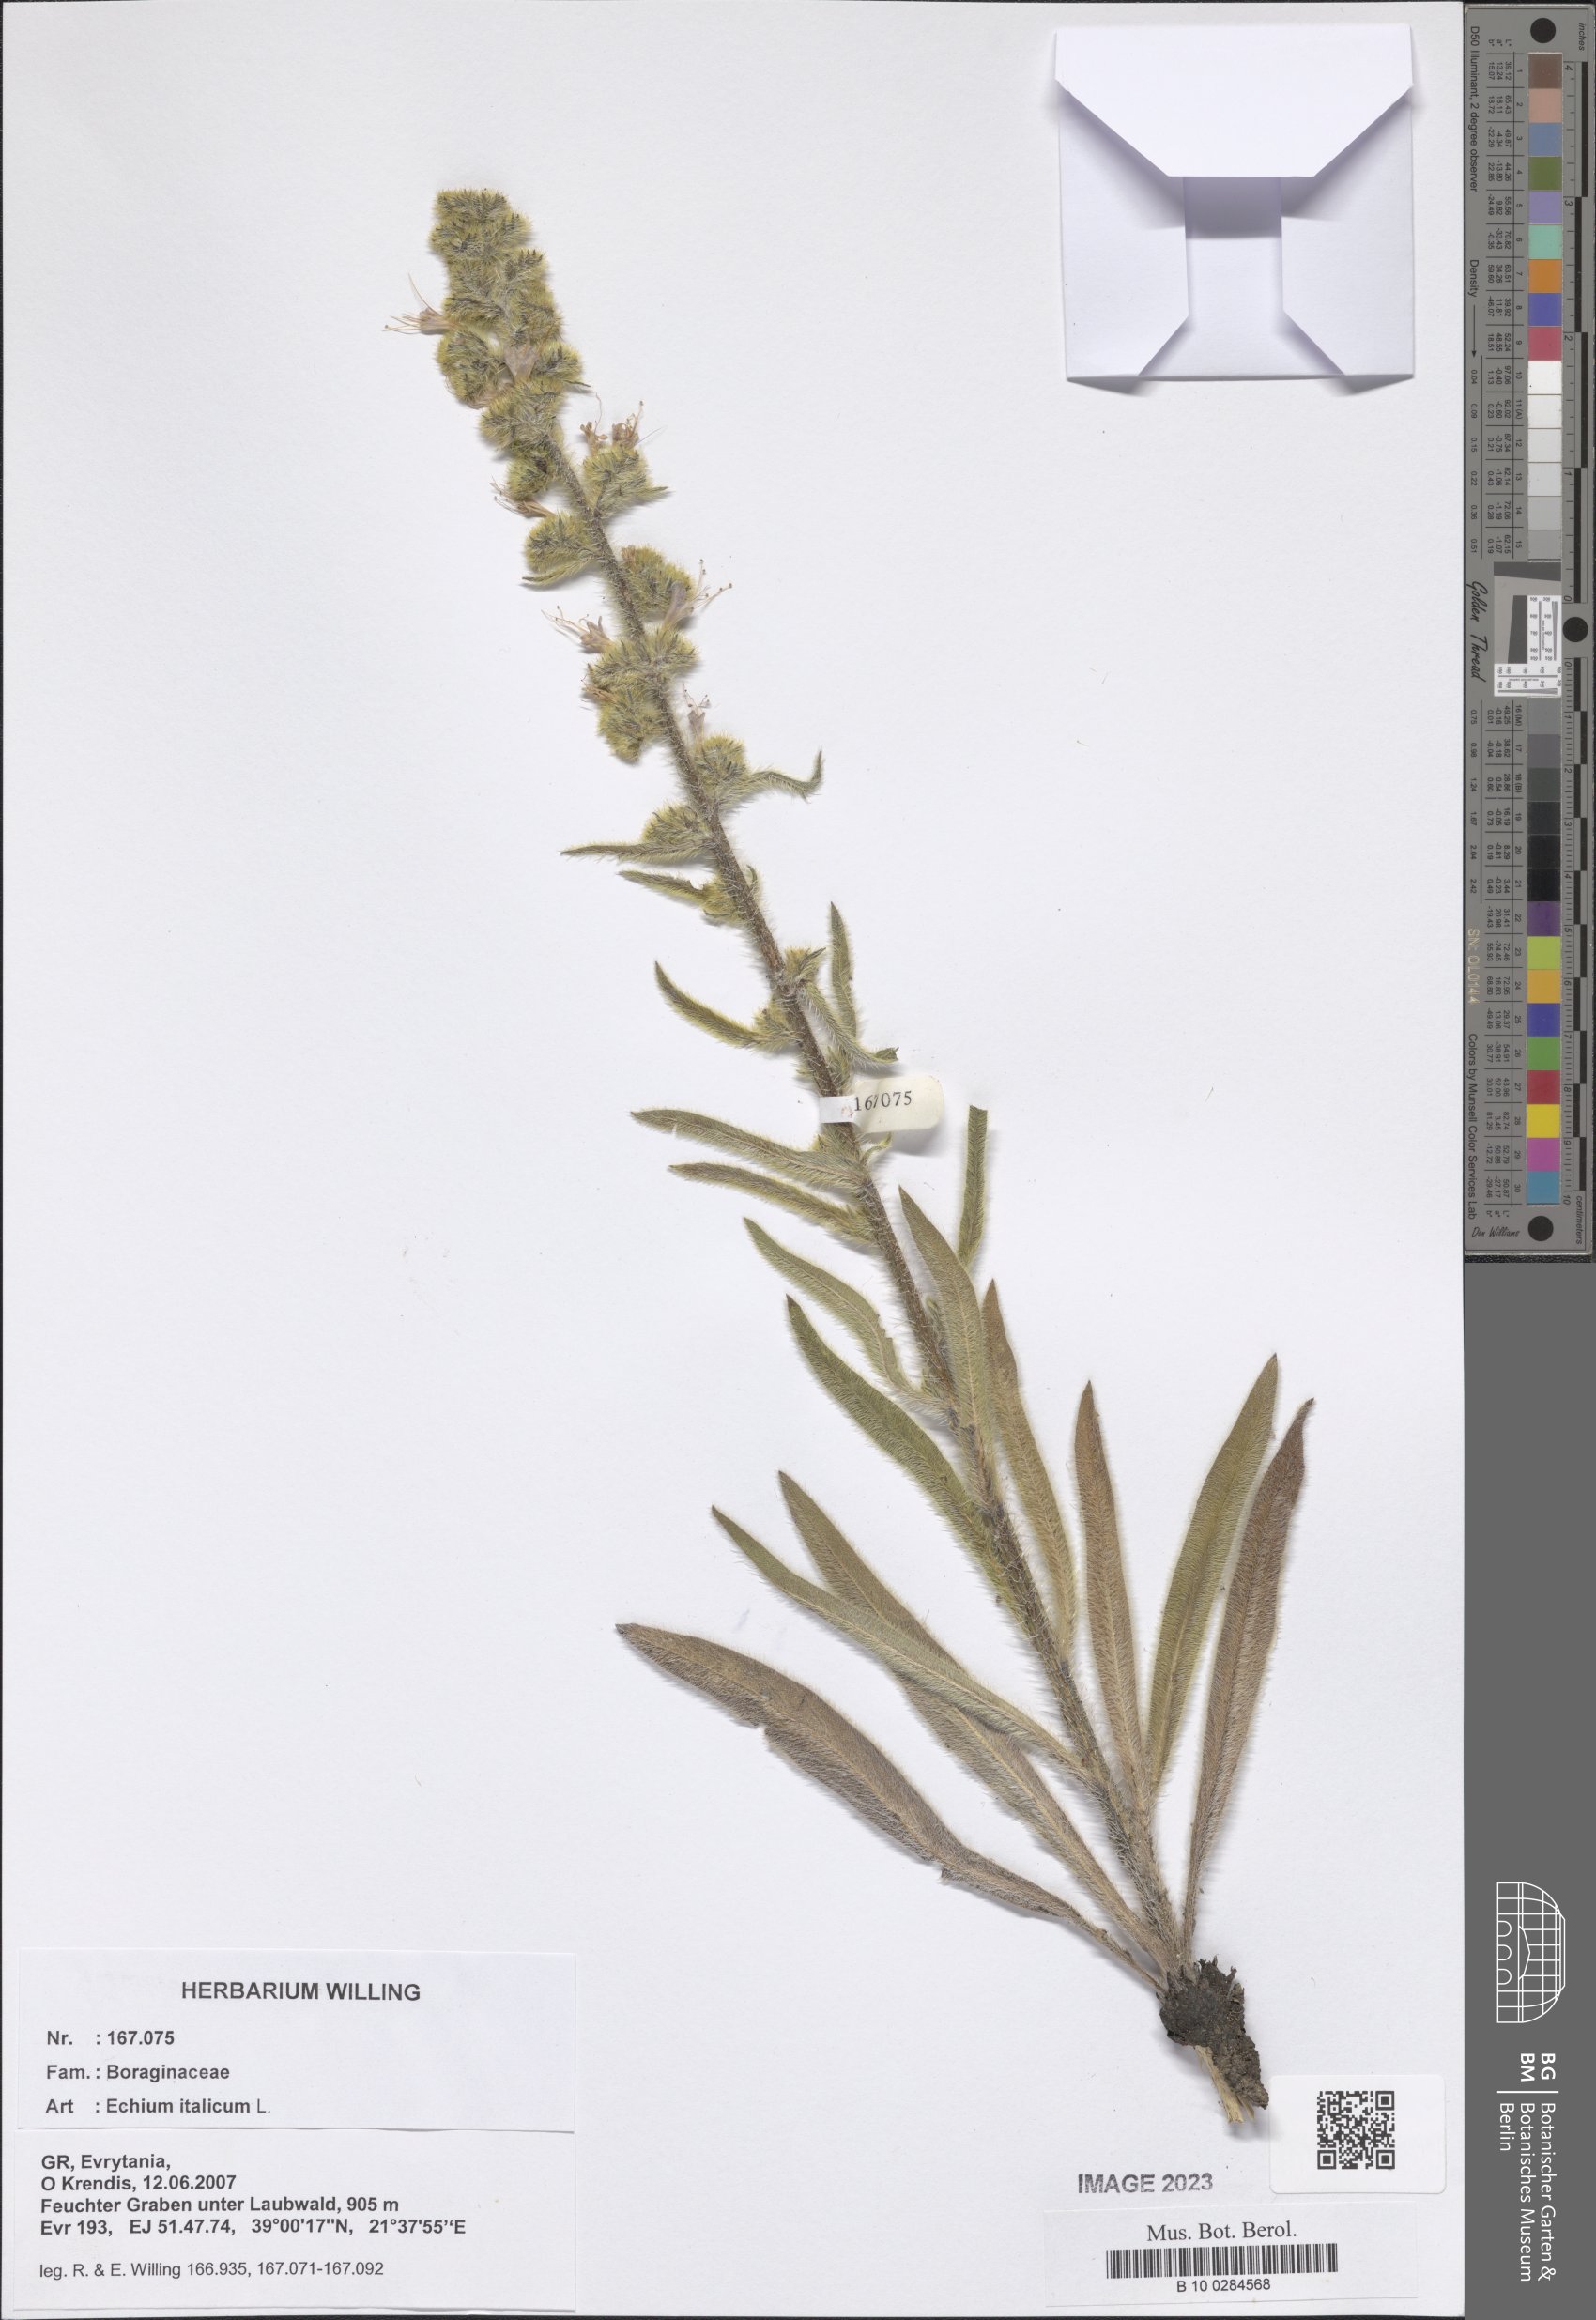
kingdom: Plantae
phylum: Tracheophyta
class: Magnoliopsida
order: Boraginales
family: Boraginaceae
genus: Echium
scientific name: Echium italicum
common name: Italian viper's bugloss
